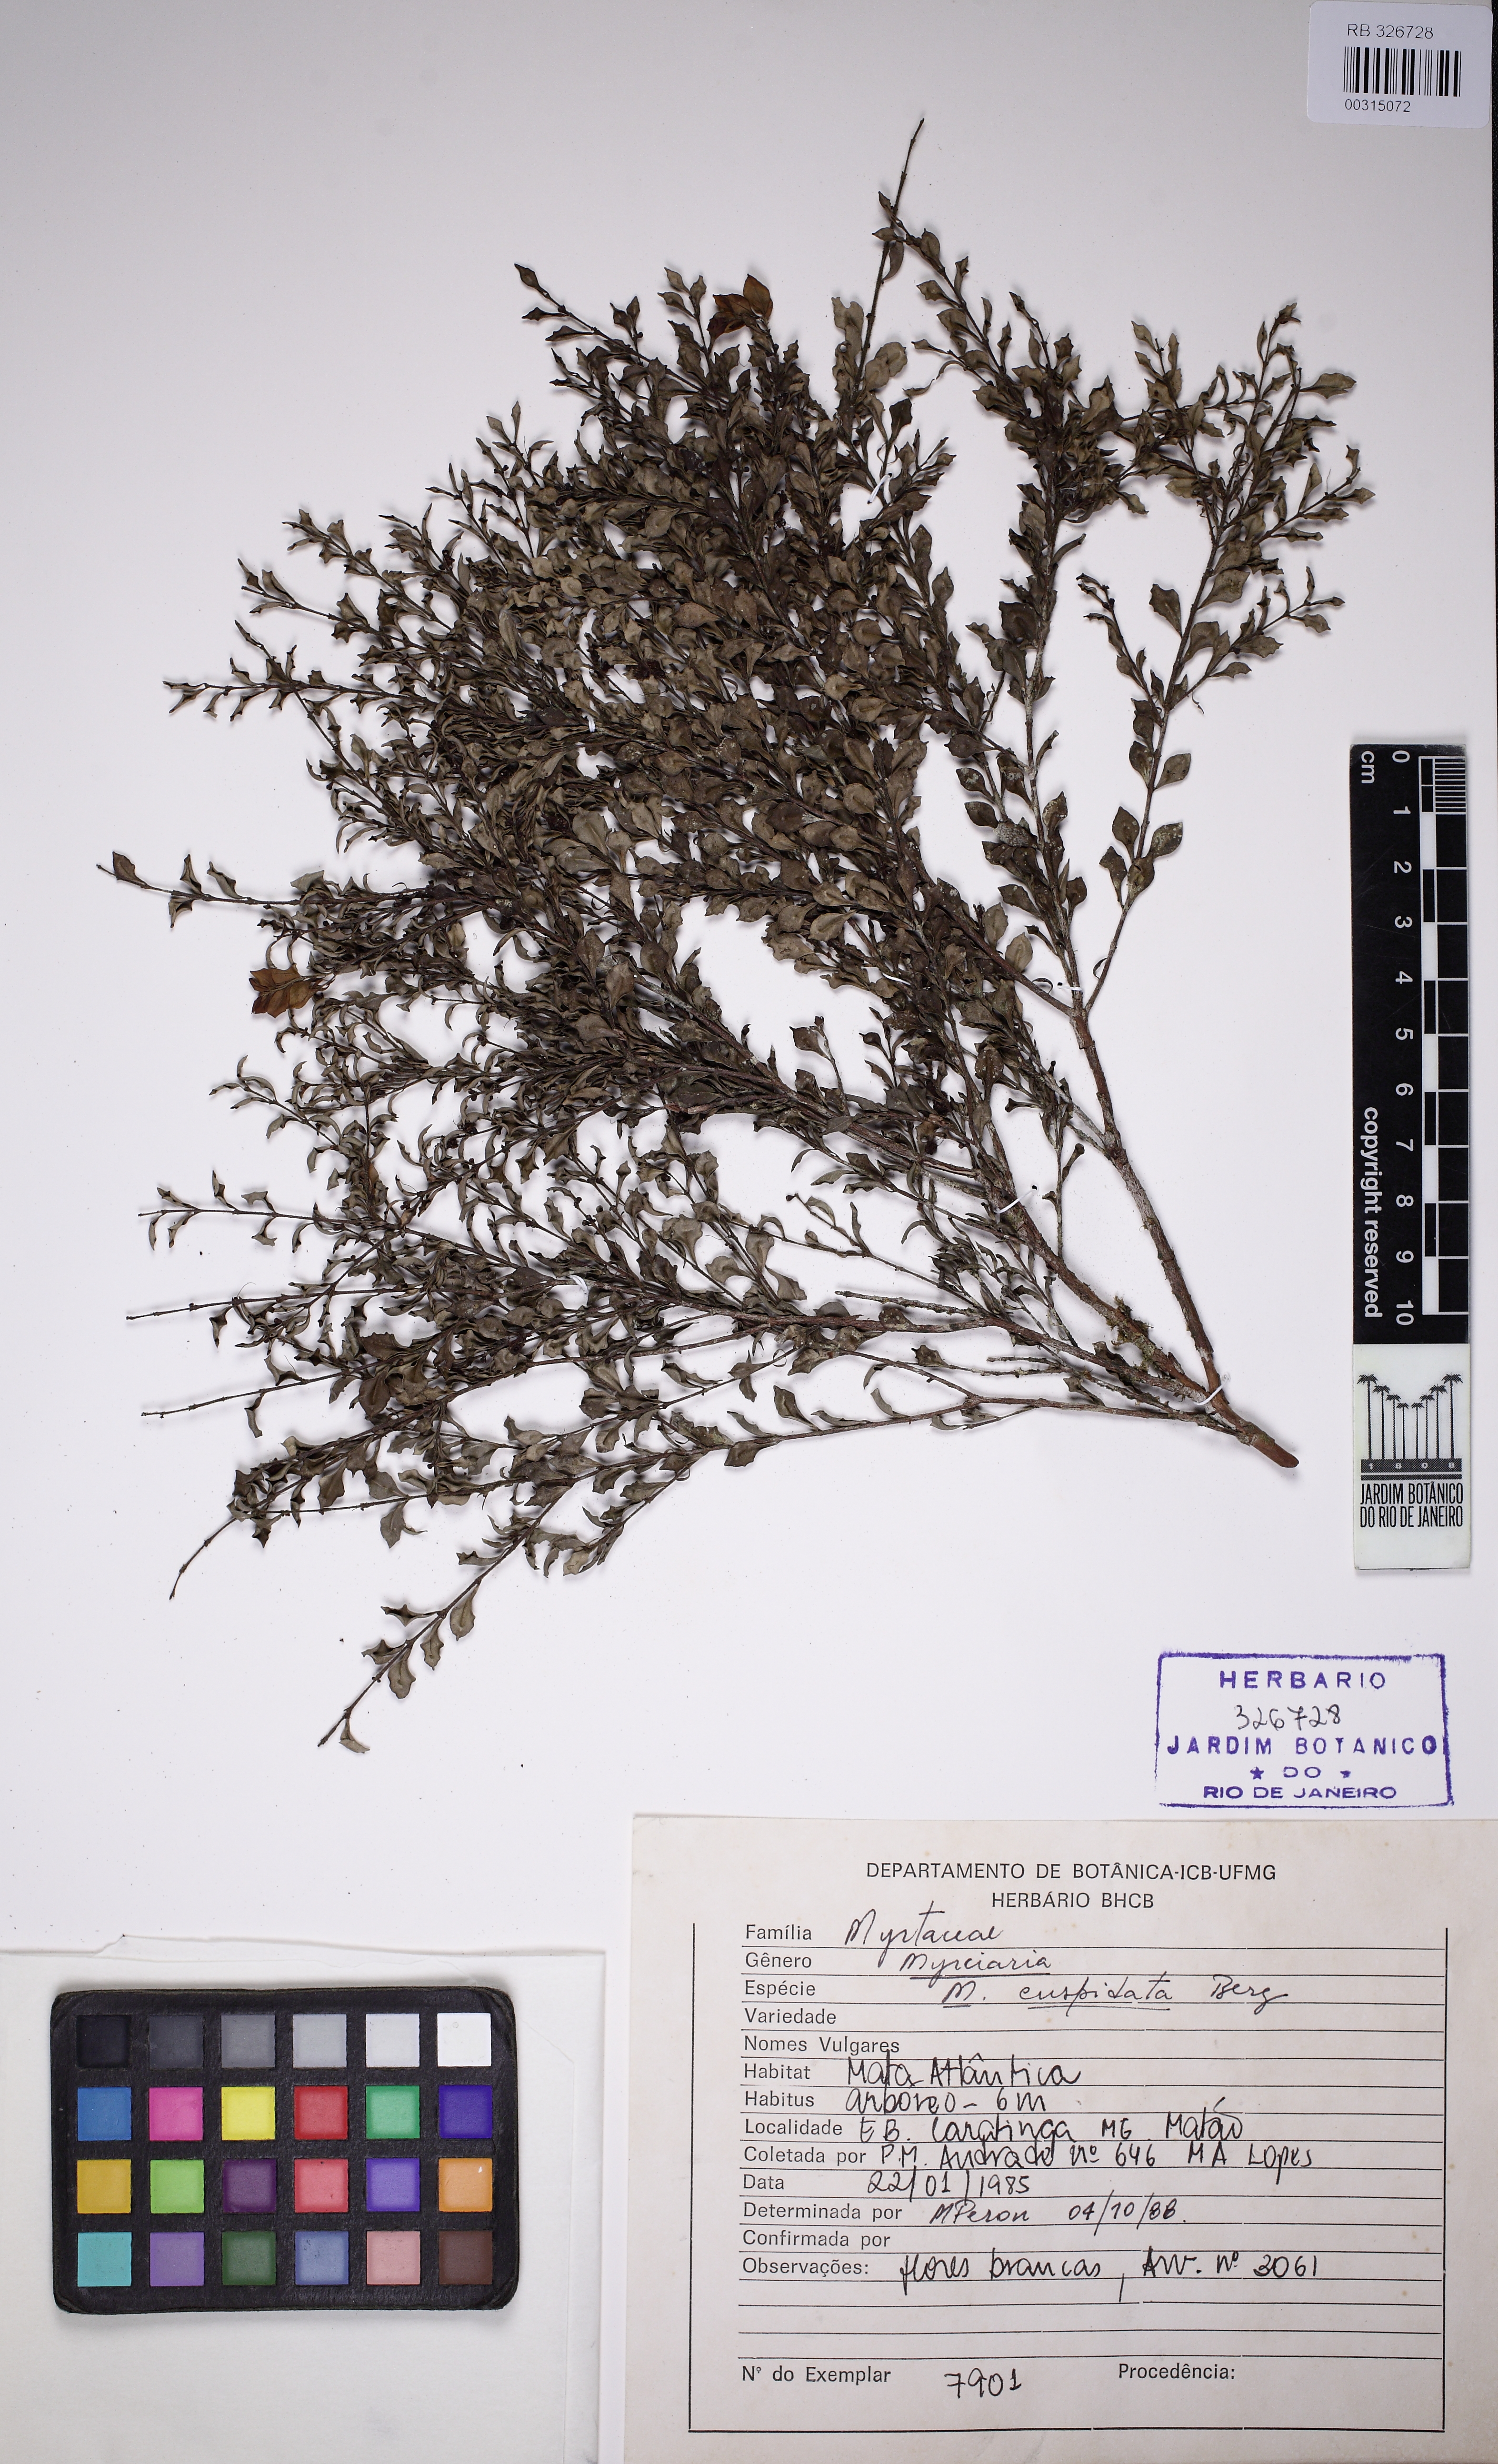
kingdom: Plantae
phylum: Tracheophyta
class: Magnoliopsida
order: Myrtales
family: Myrtaceae
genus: Myrciaria
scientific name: Myrciaria disticha
